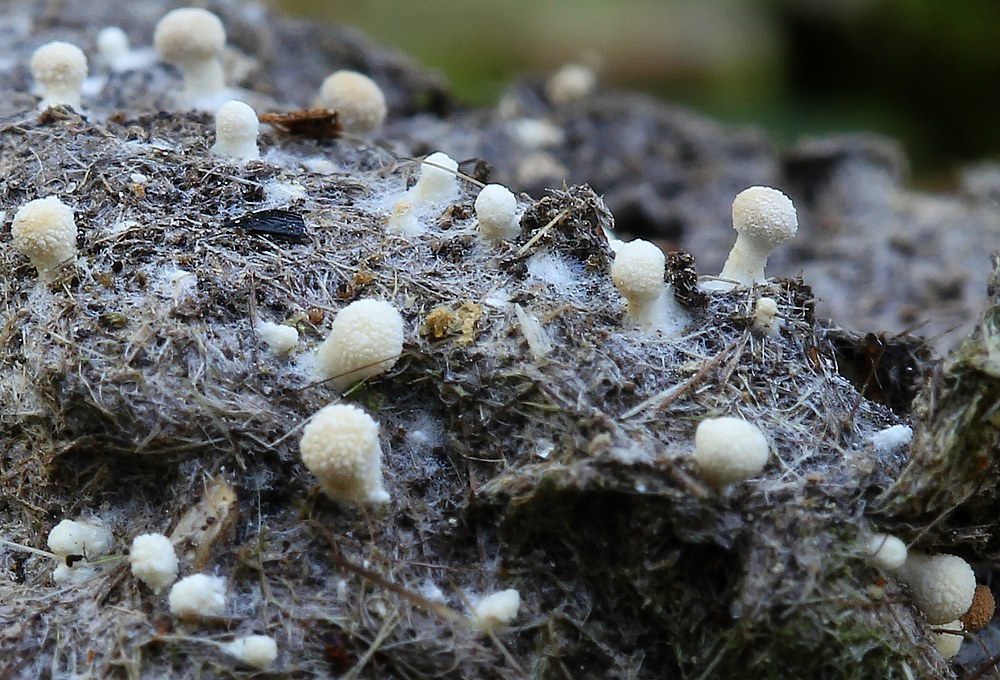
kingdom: Fungi
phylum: Ascomycota
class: Eurotiomycetes
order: Onygenales
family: Onygenaceae
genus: Onygena
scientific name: Onygena corvina
